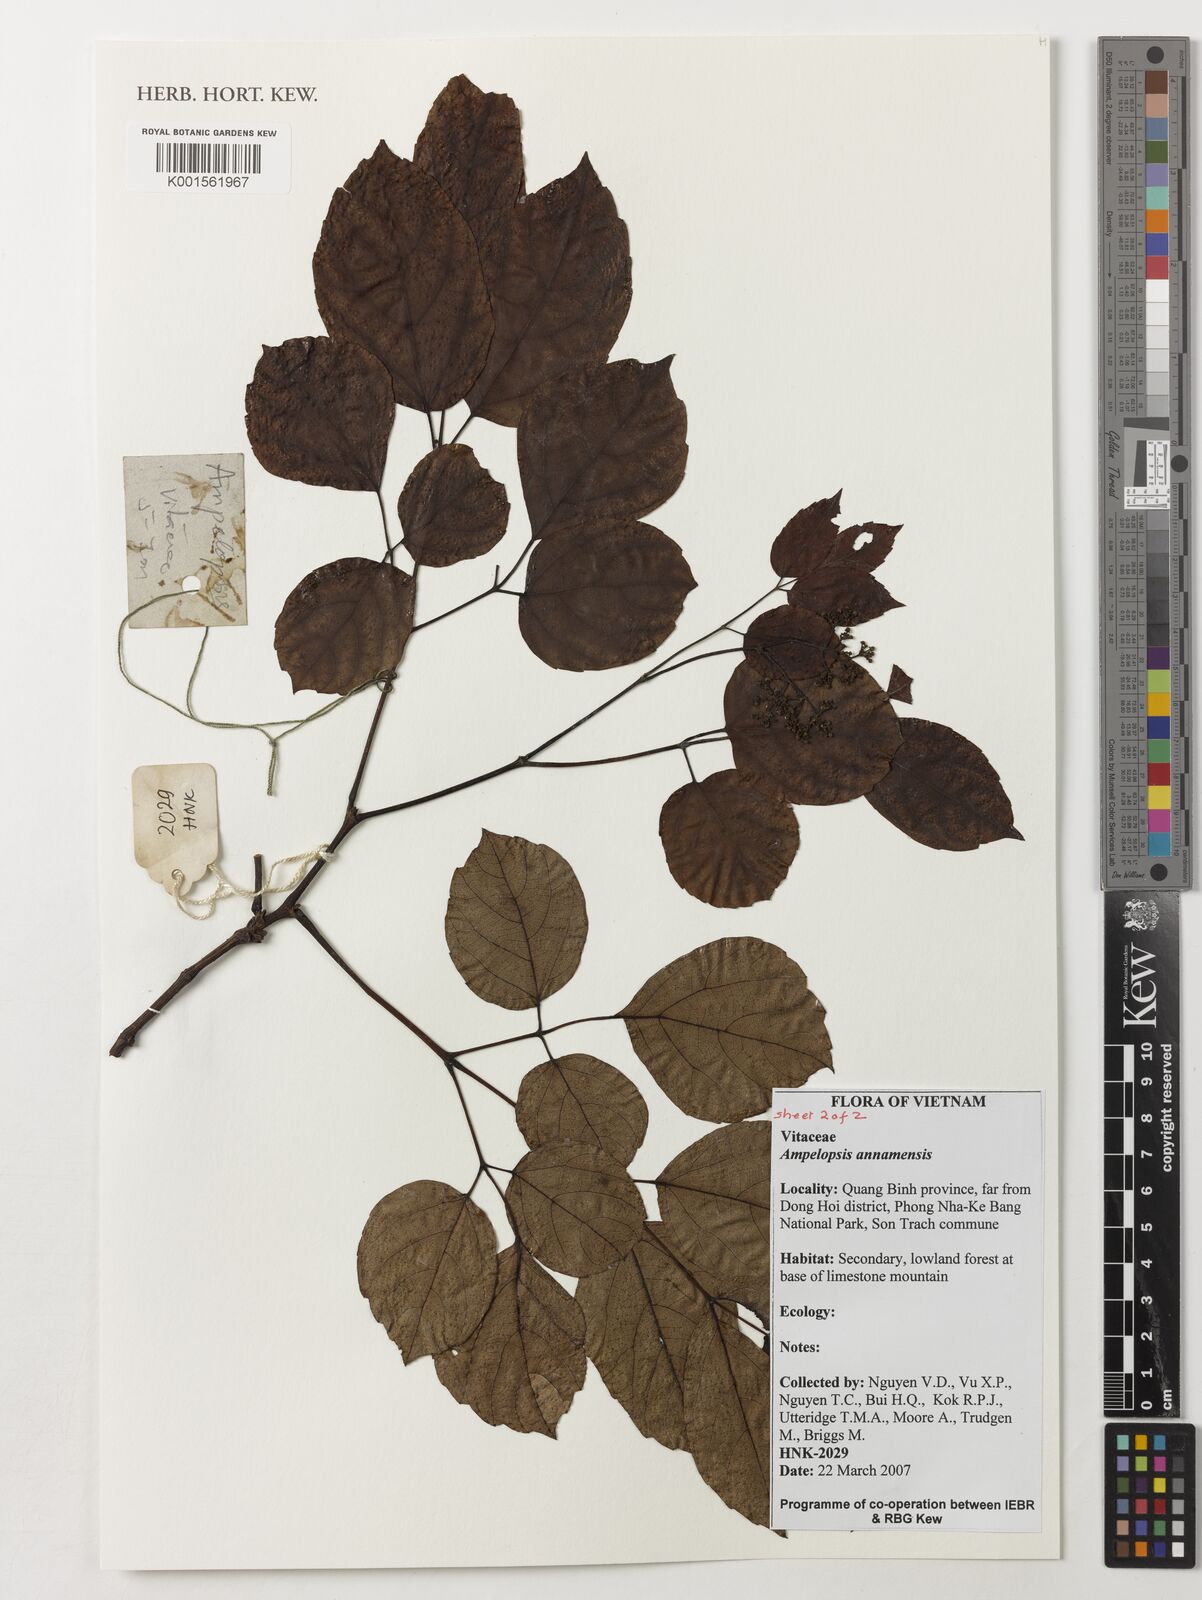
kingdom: Plantae
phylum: Tracheophyta
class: Magnoliopsida
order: Vitales
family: Vitaceae
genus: Nekemias
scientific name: Nekemias cantoniensis
